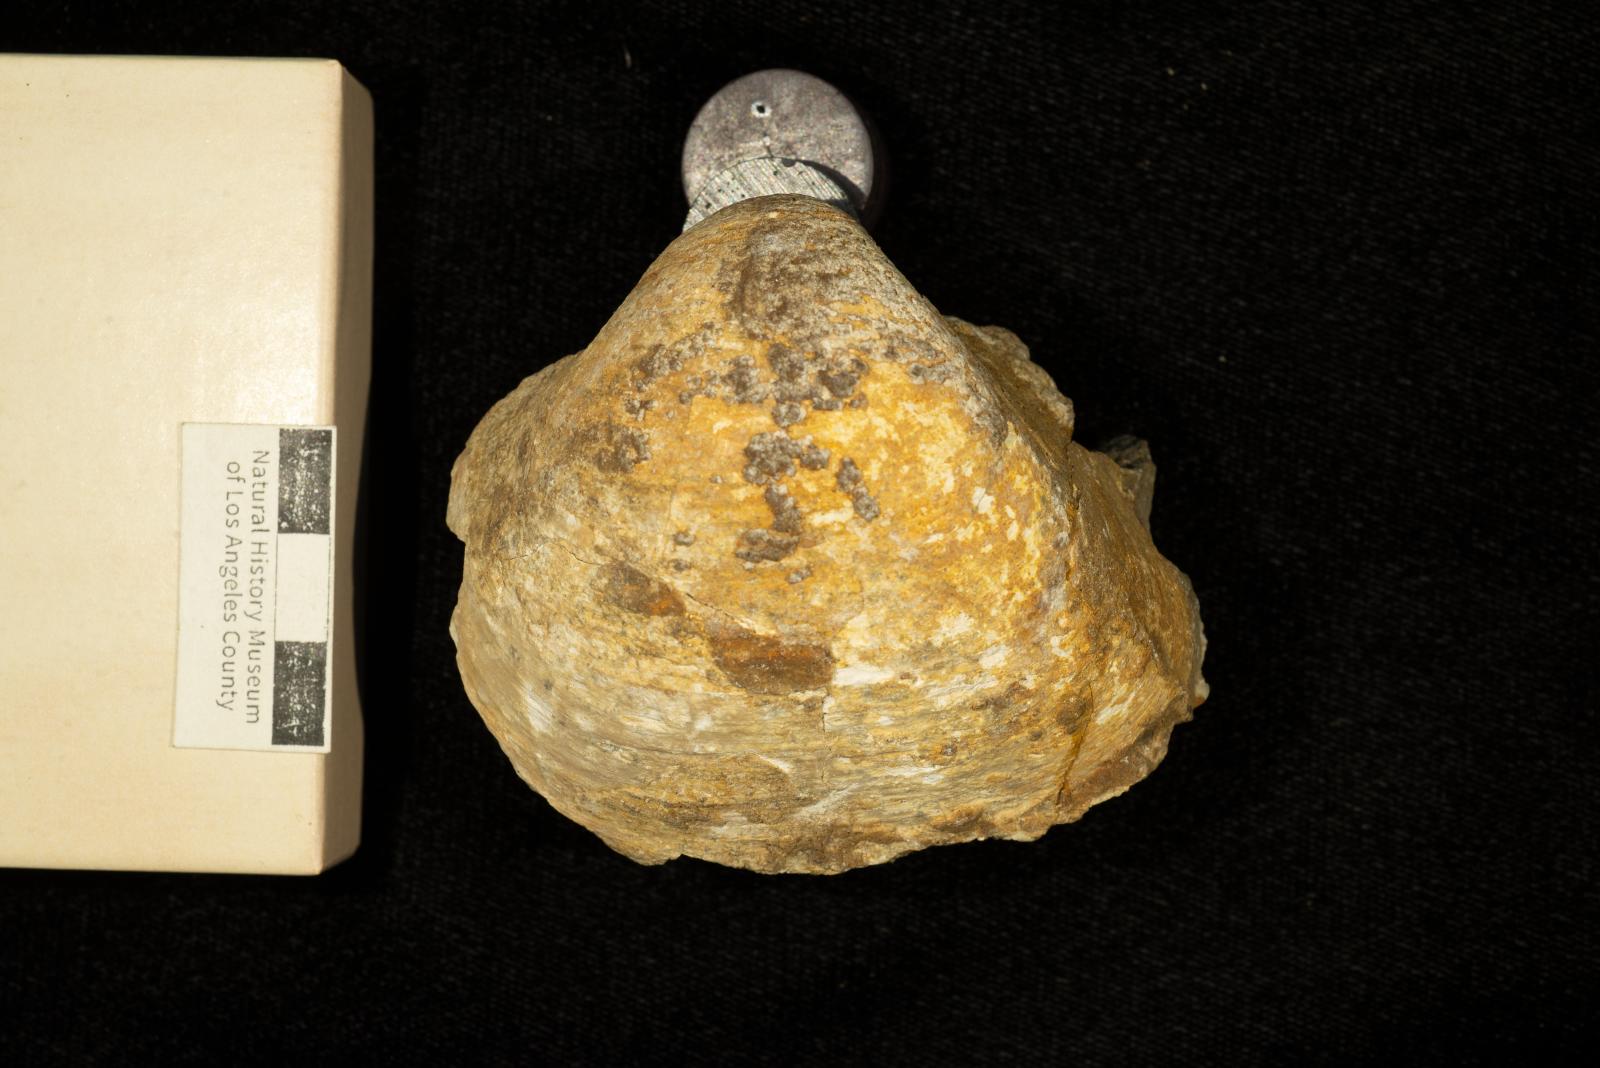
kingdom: Animalia
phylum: Mollusca
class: Bivalvia
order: Arcida
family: Cucullaeidae
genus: Idonearca
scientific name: Idonearca Cucullaea youngi
